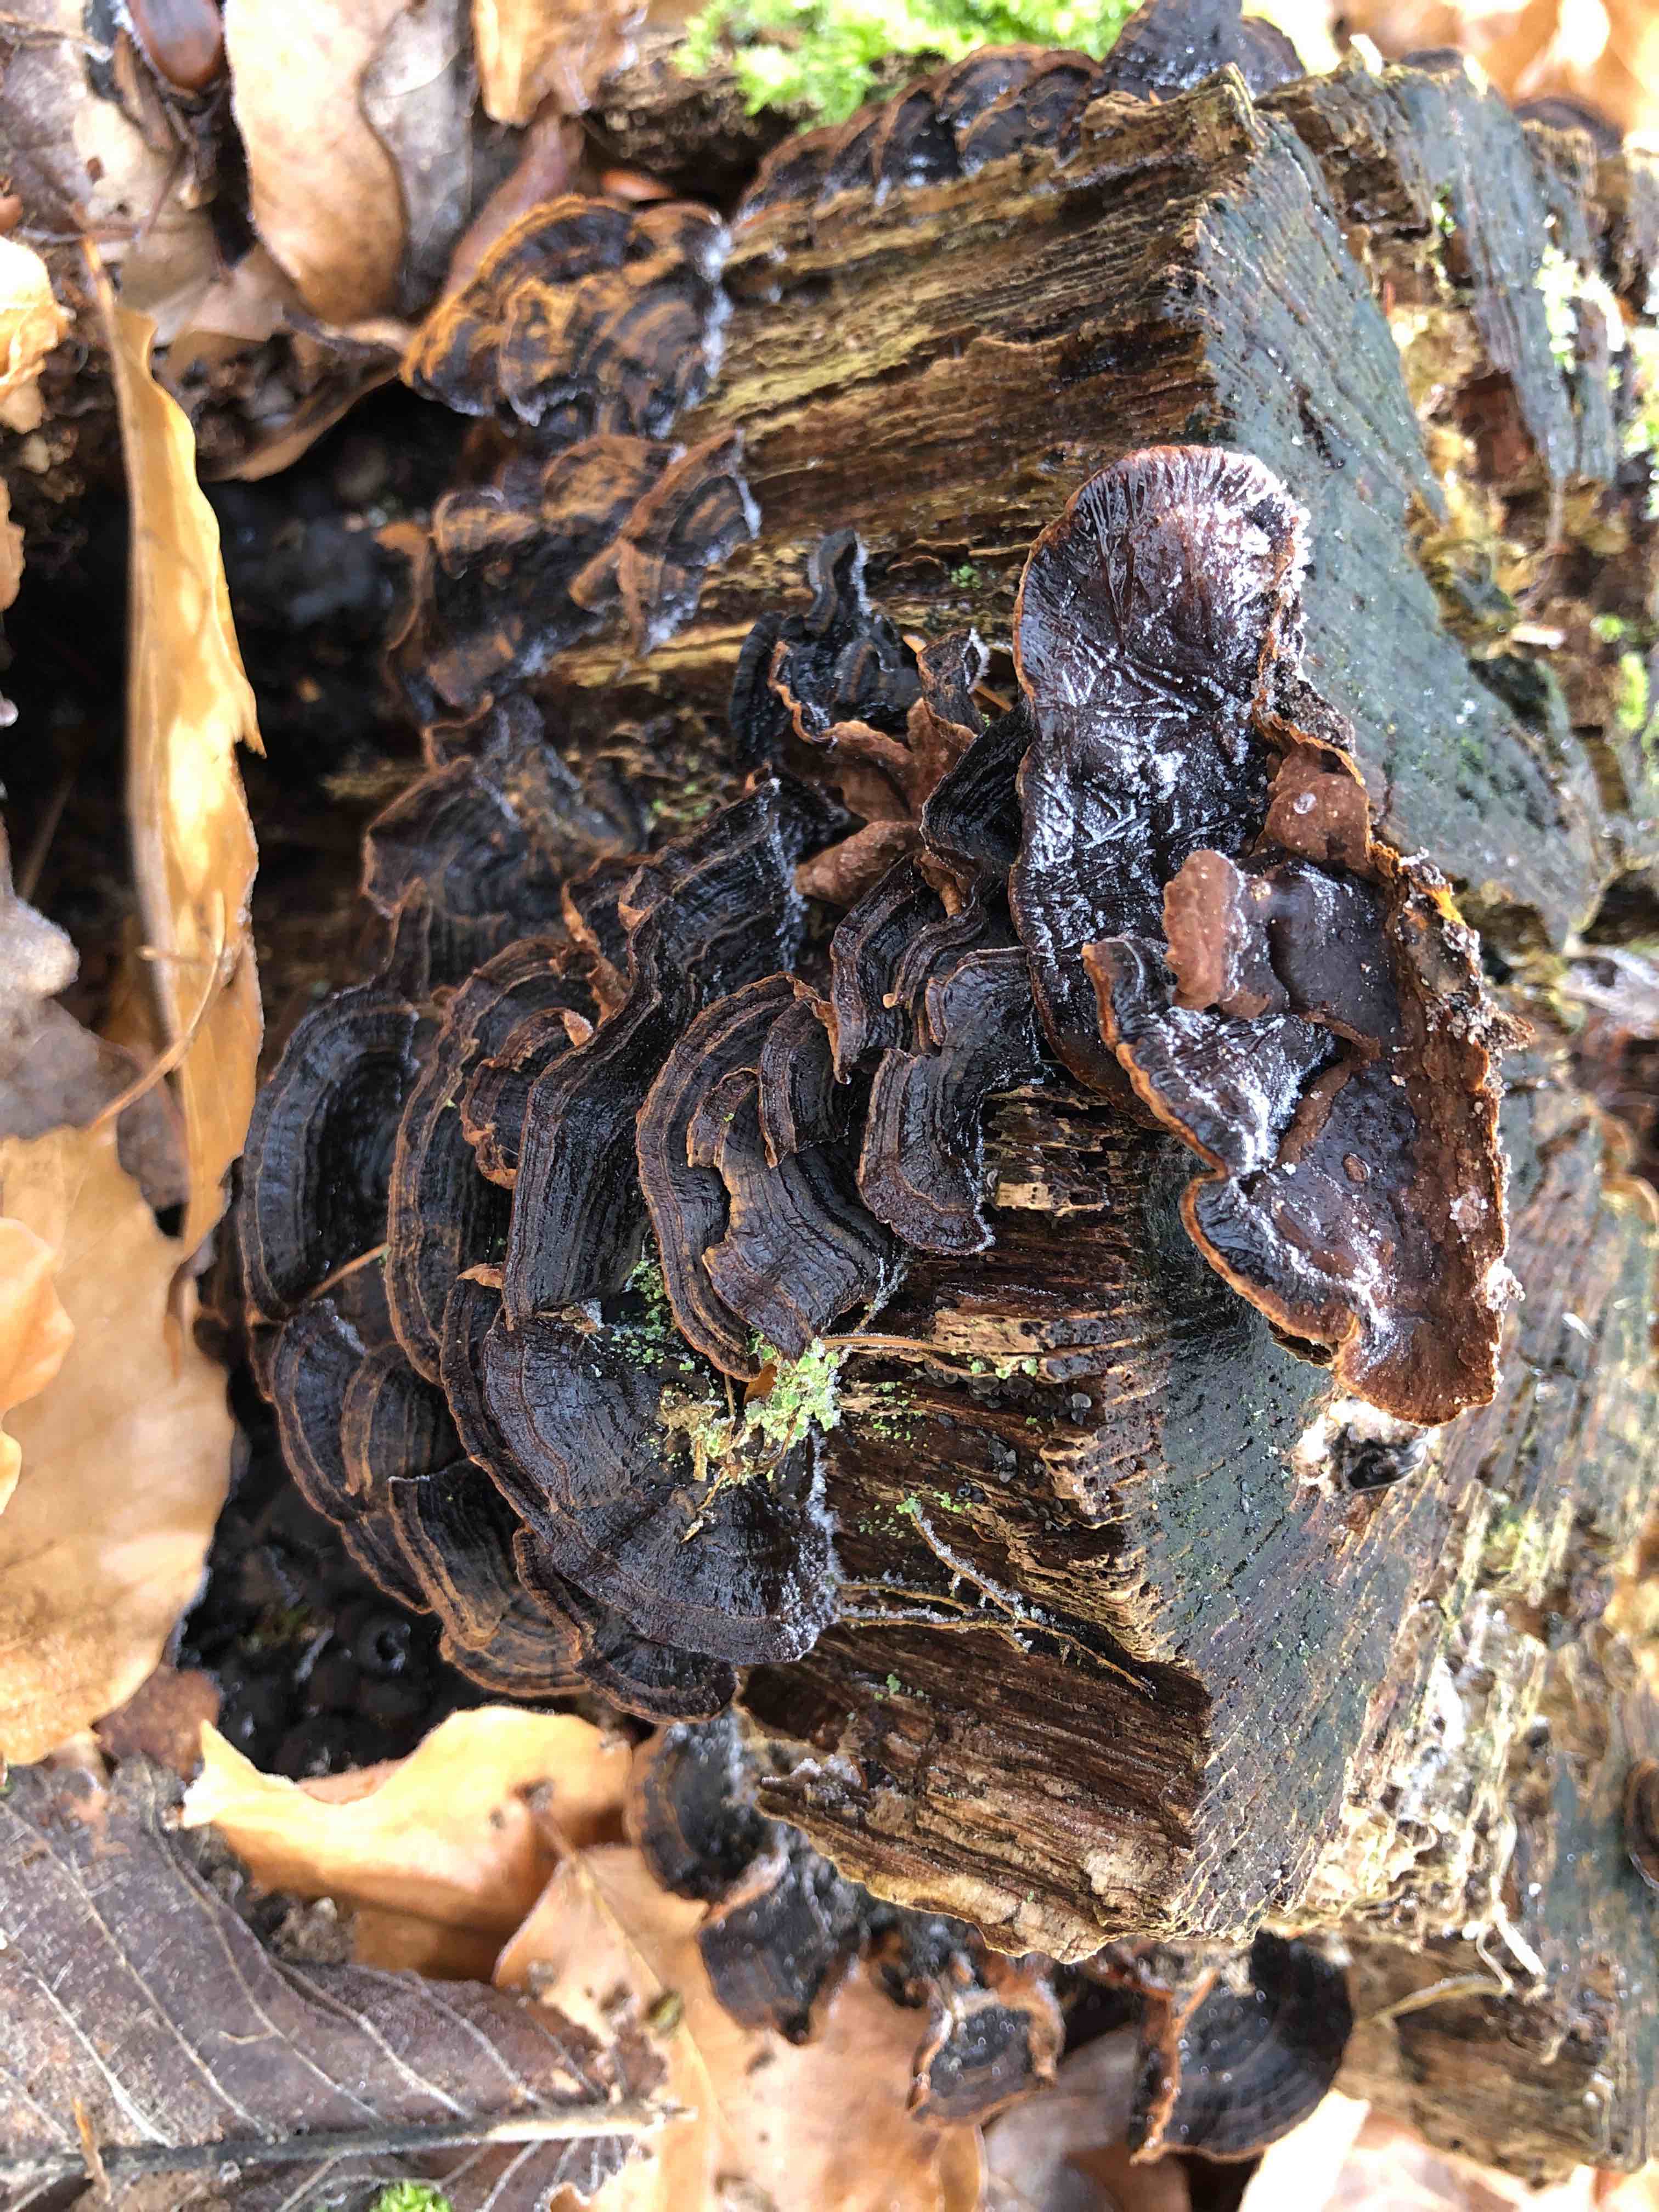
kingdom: Fungi
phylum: Basidiomycota
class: Agaricomycetes
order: Hymenochaetales
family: Hymenochaetaceae
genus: Hymenochaete
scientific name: Hymenochaete rubiginosa
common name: stiv ruslædersvamp
